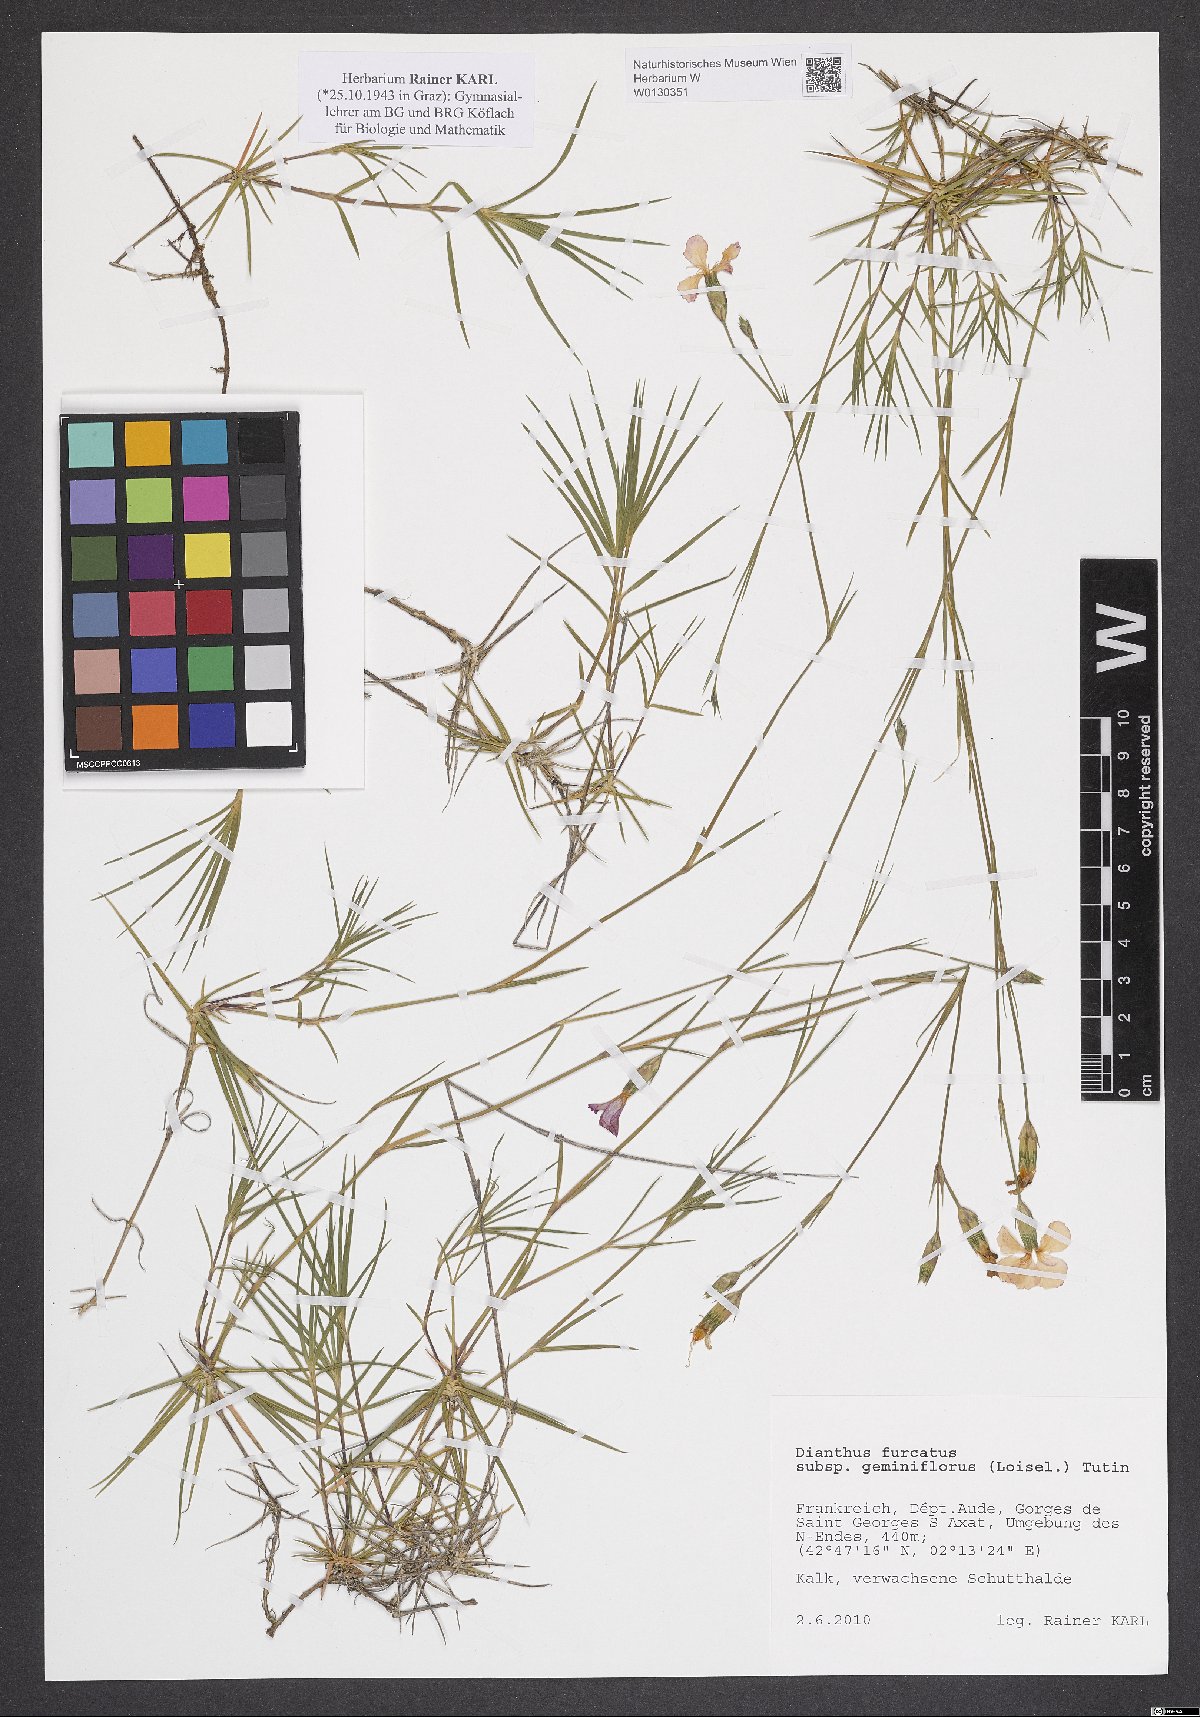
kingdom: Plantae
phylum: Tracheophyta
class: Magnoliopsida
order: Caryophyllales
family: Caryophyllaceae
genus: Dianthus
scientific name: Dianthus benearnensis
